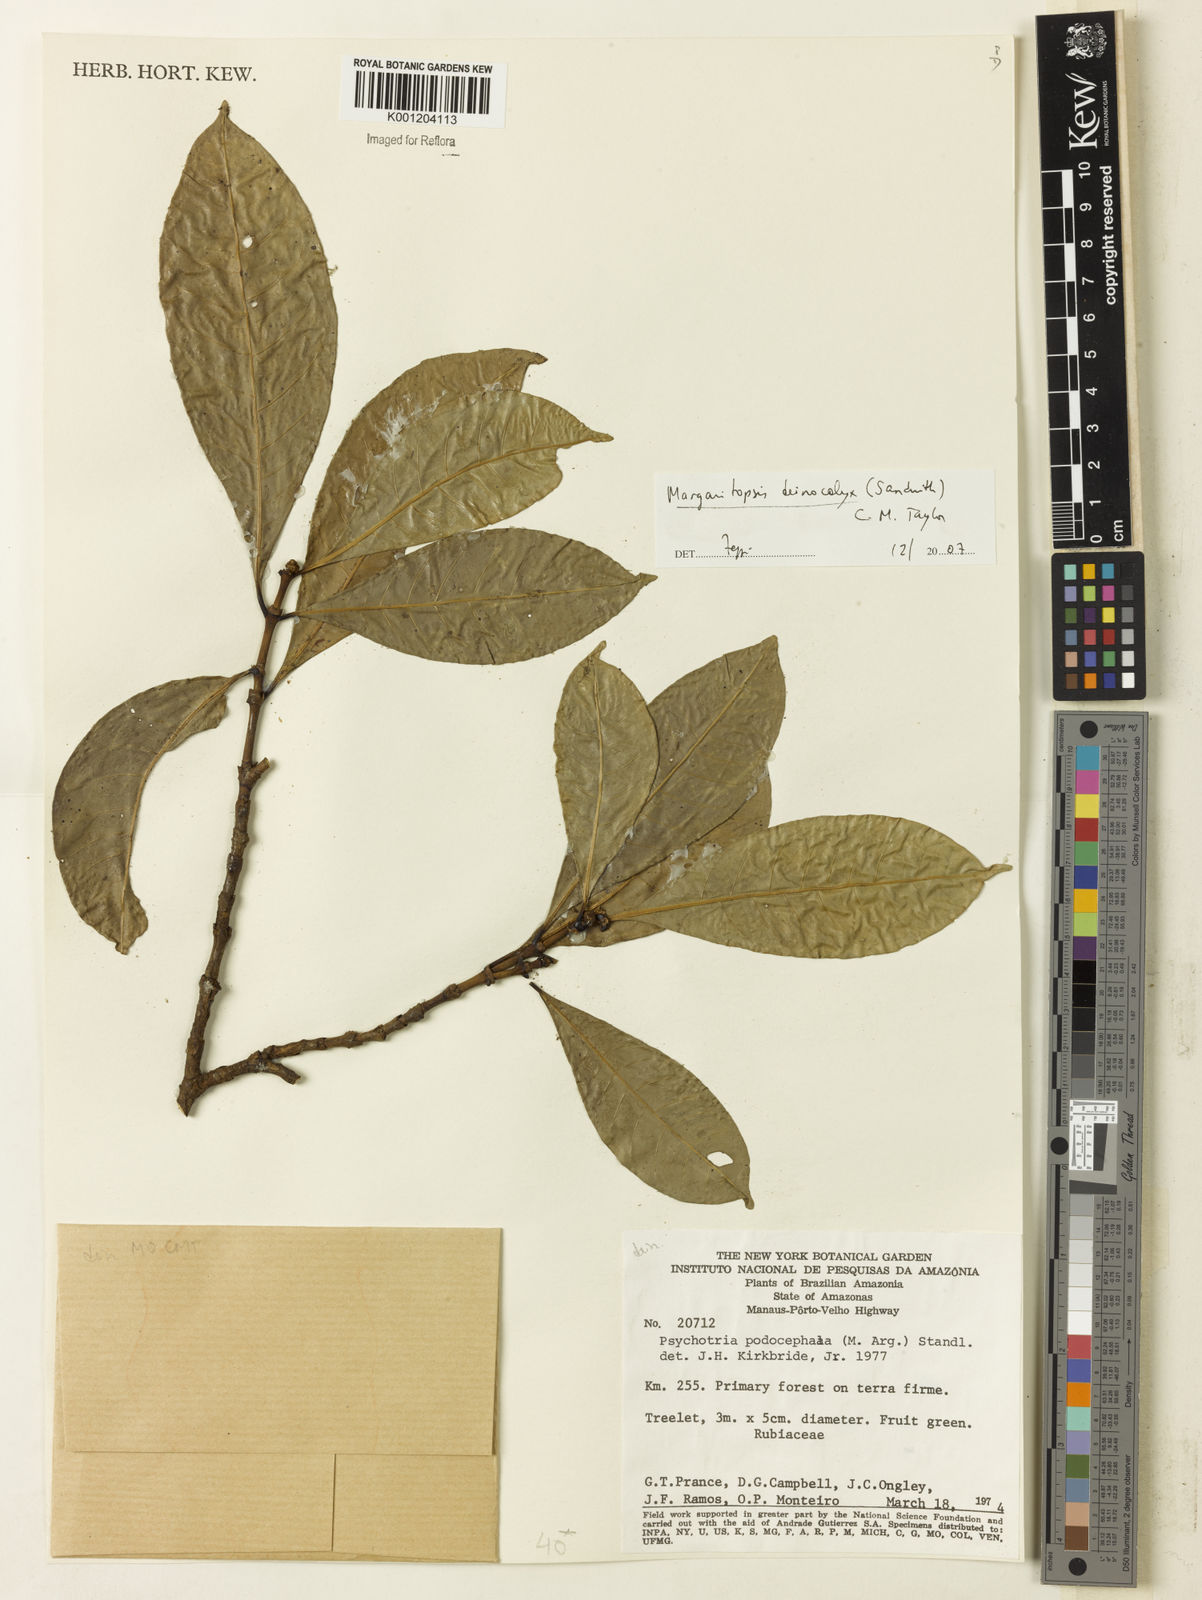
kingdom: Plantae
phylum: Tracheophyta
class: Magnoliopsida
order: Gentianales
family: Rubiaceae
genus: Eumachia
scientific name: Eumachia deinocalyx
